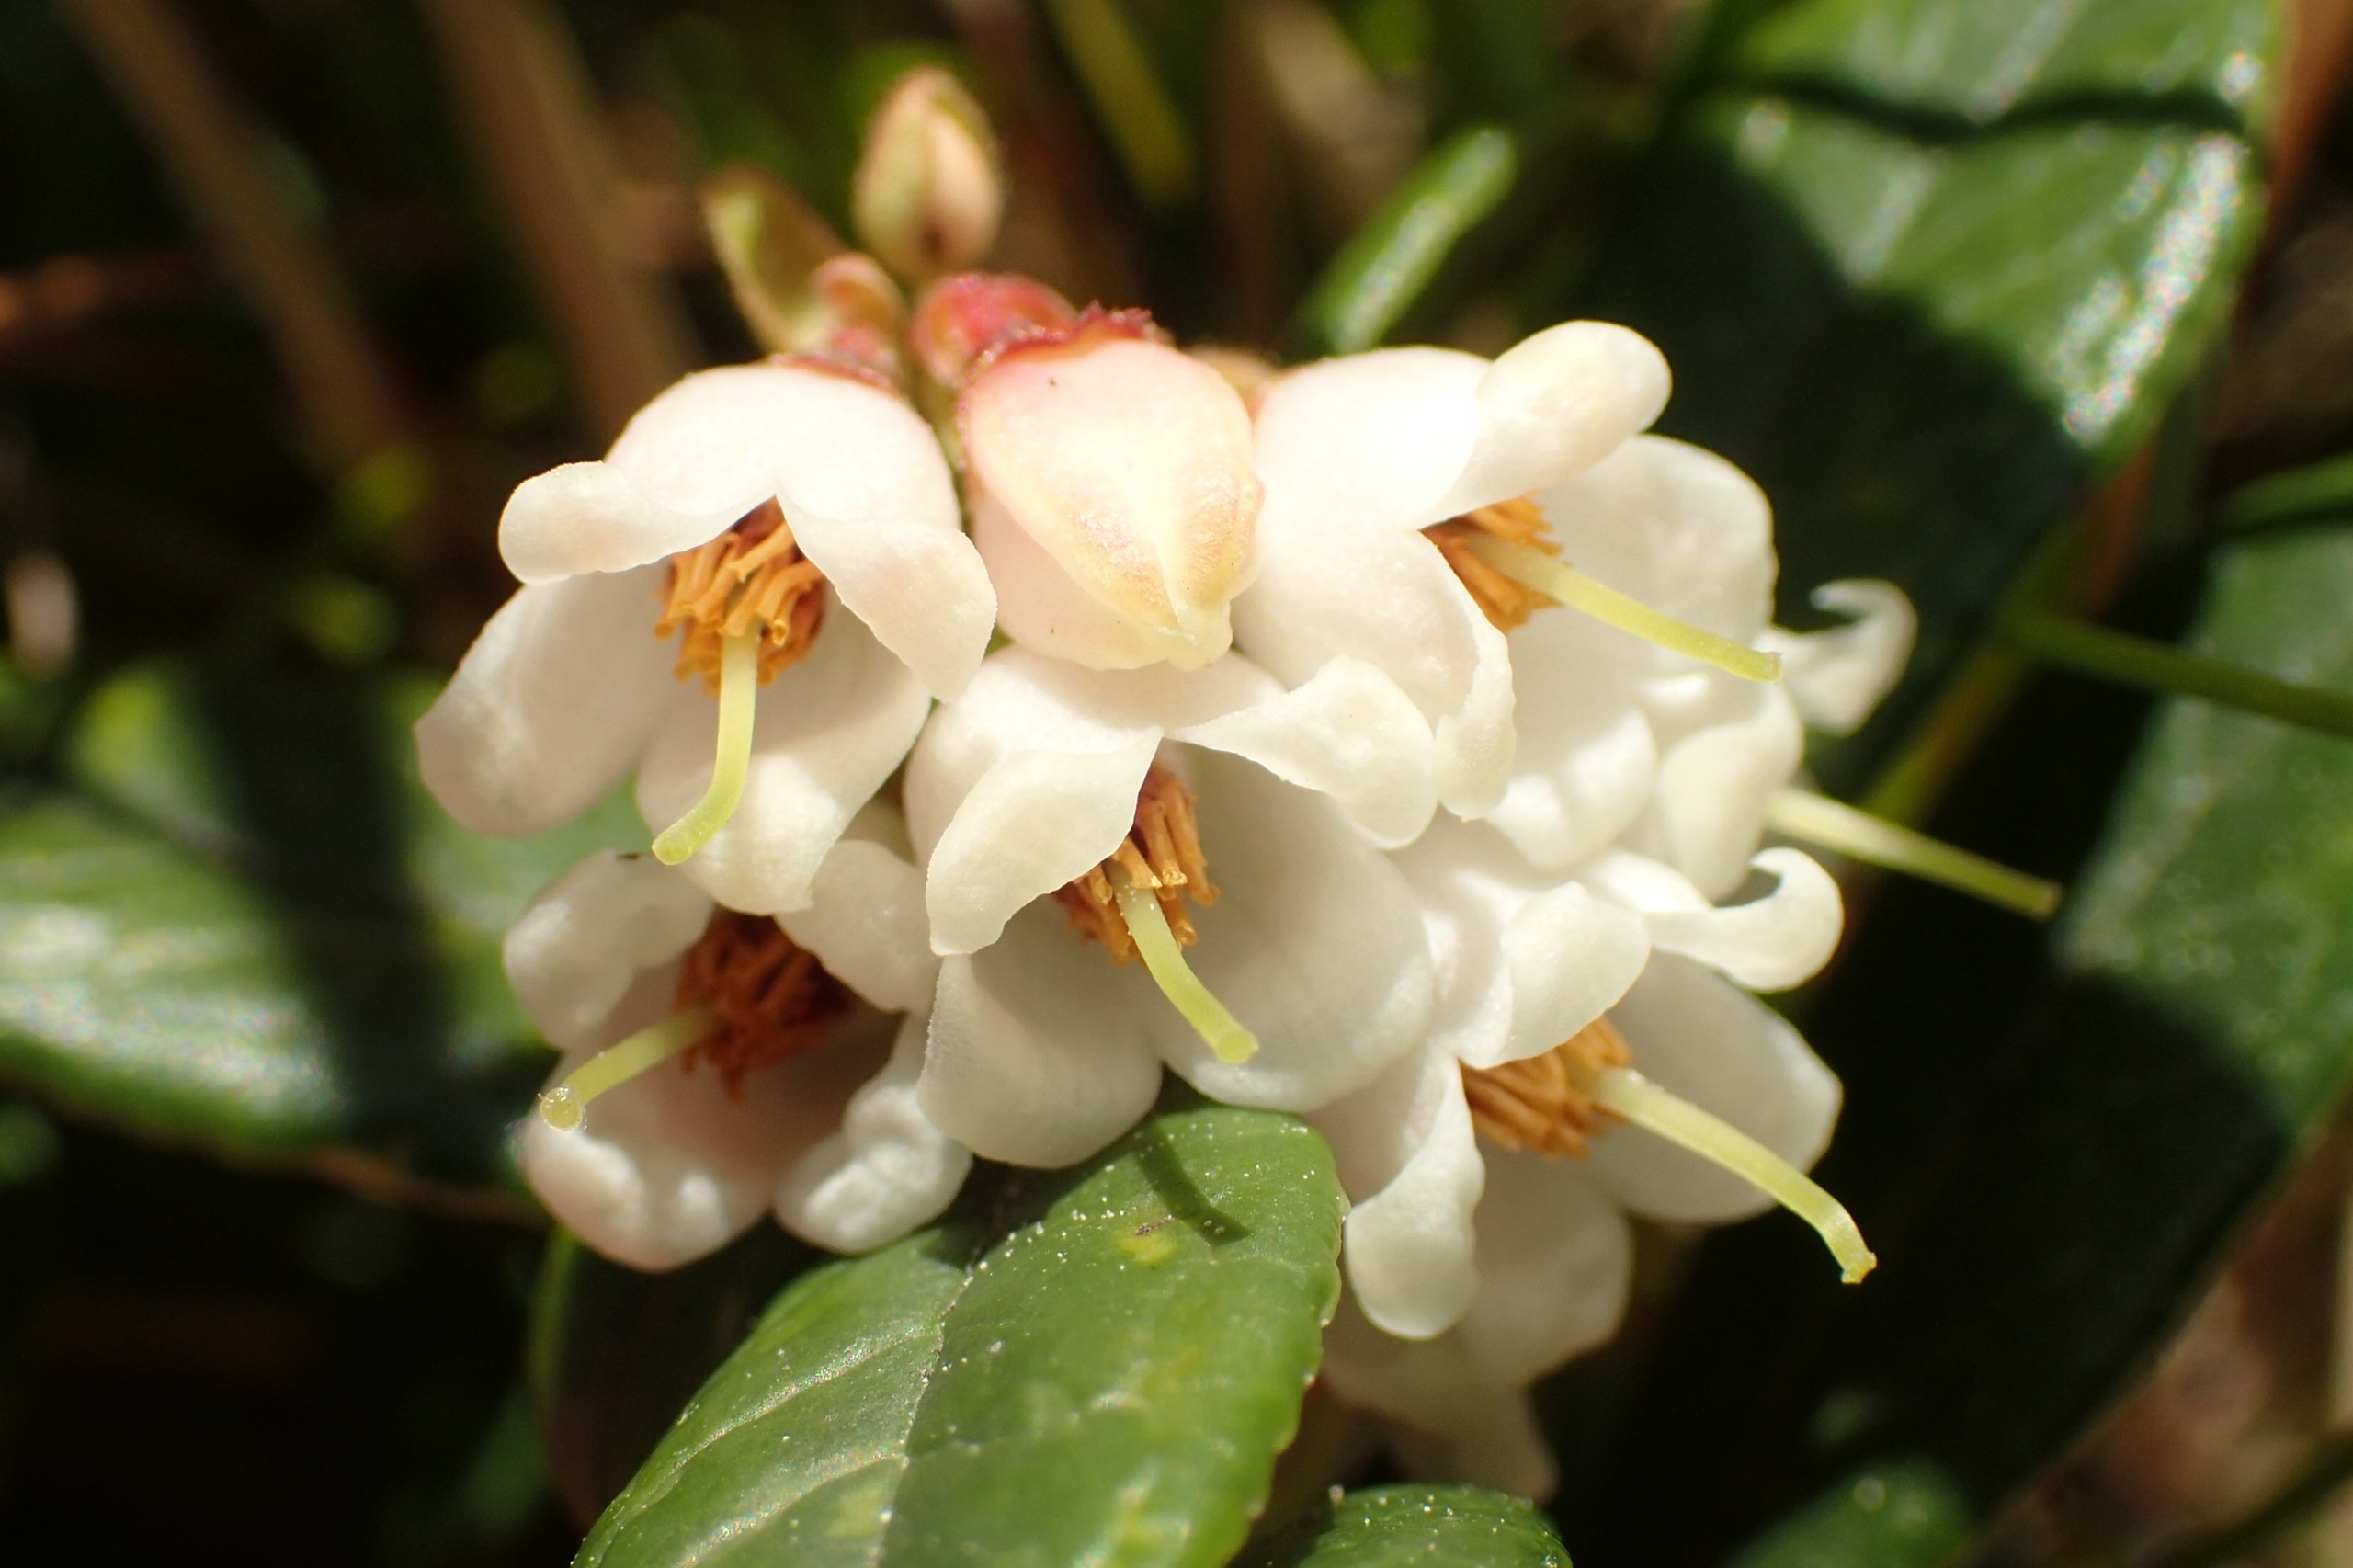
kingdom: Plantae
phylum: Tracheophyta
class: Magnoliopsida
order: Ericales
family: Ericaceae
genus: Vaccinium
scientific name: Vaccinium vitis-idaea
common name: Tyttebær
